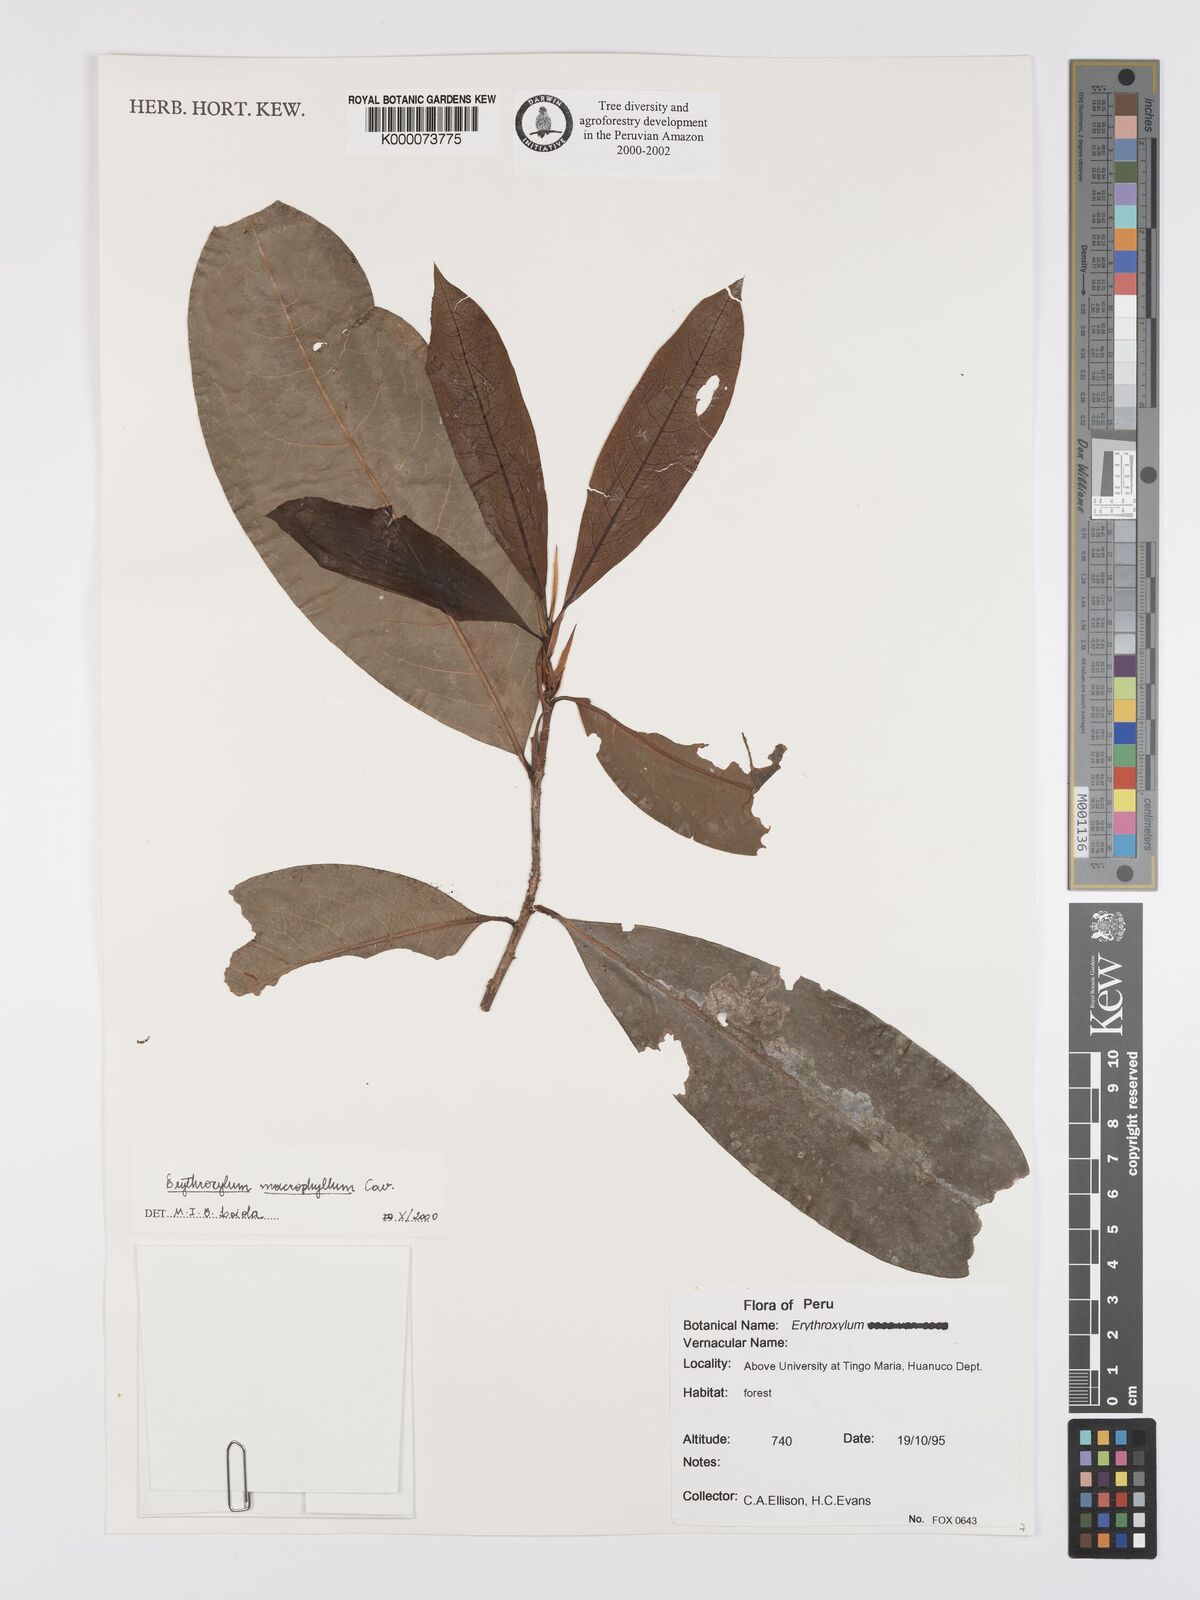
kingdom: Plantae
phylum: Tracheophyta
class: Magnoliopsida
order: Malpighiales
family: Erythroxylaceae
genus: Erythroxylum
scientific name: Erythroxylum
